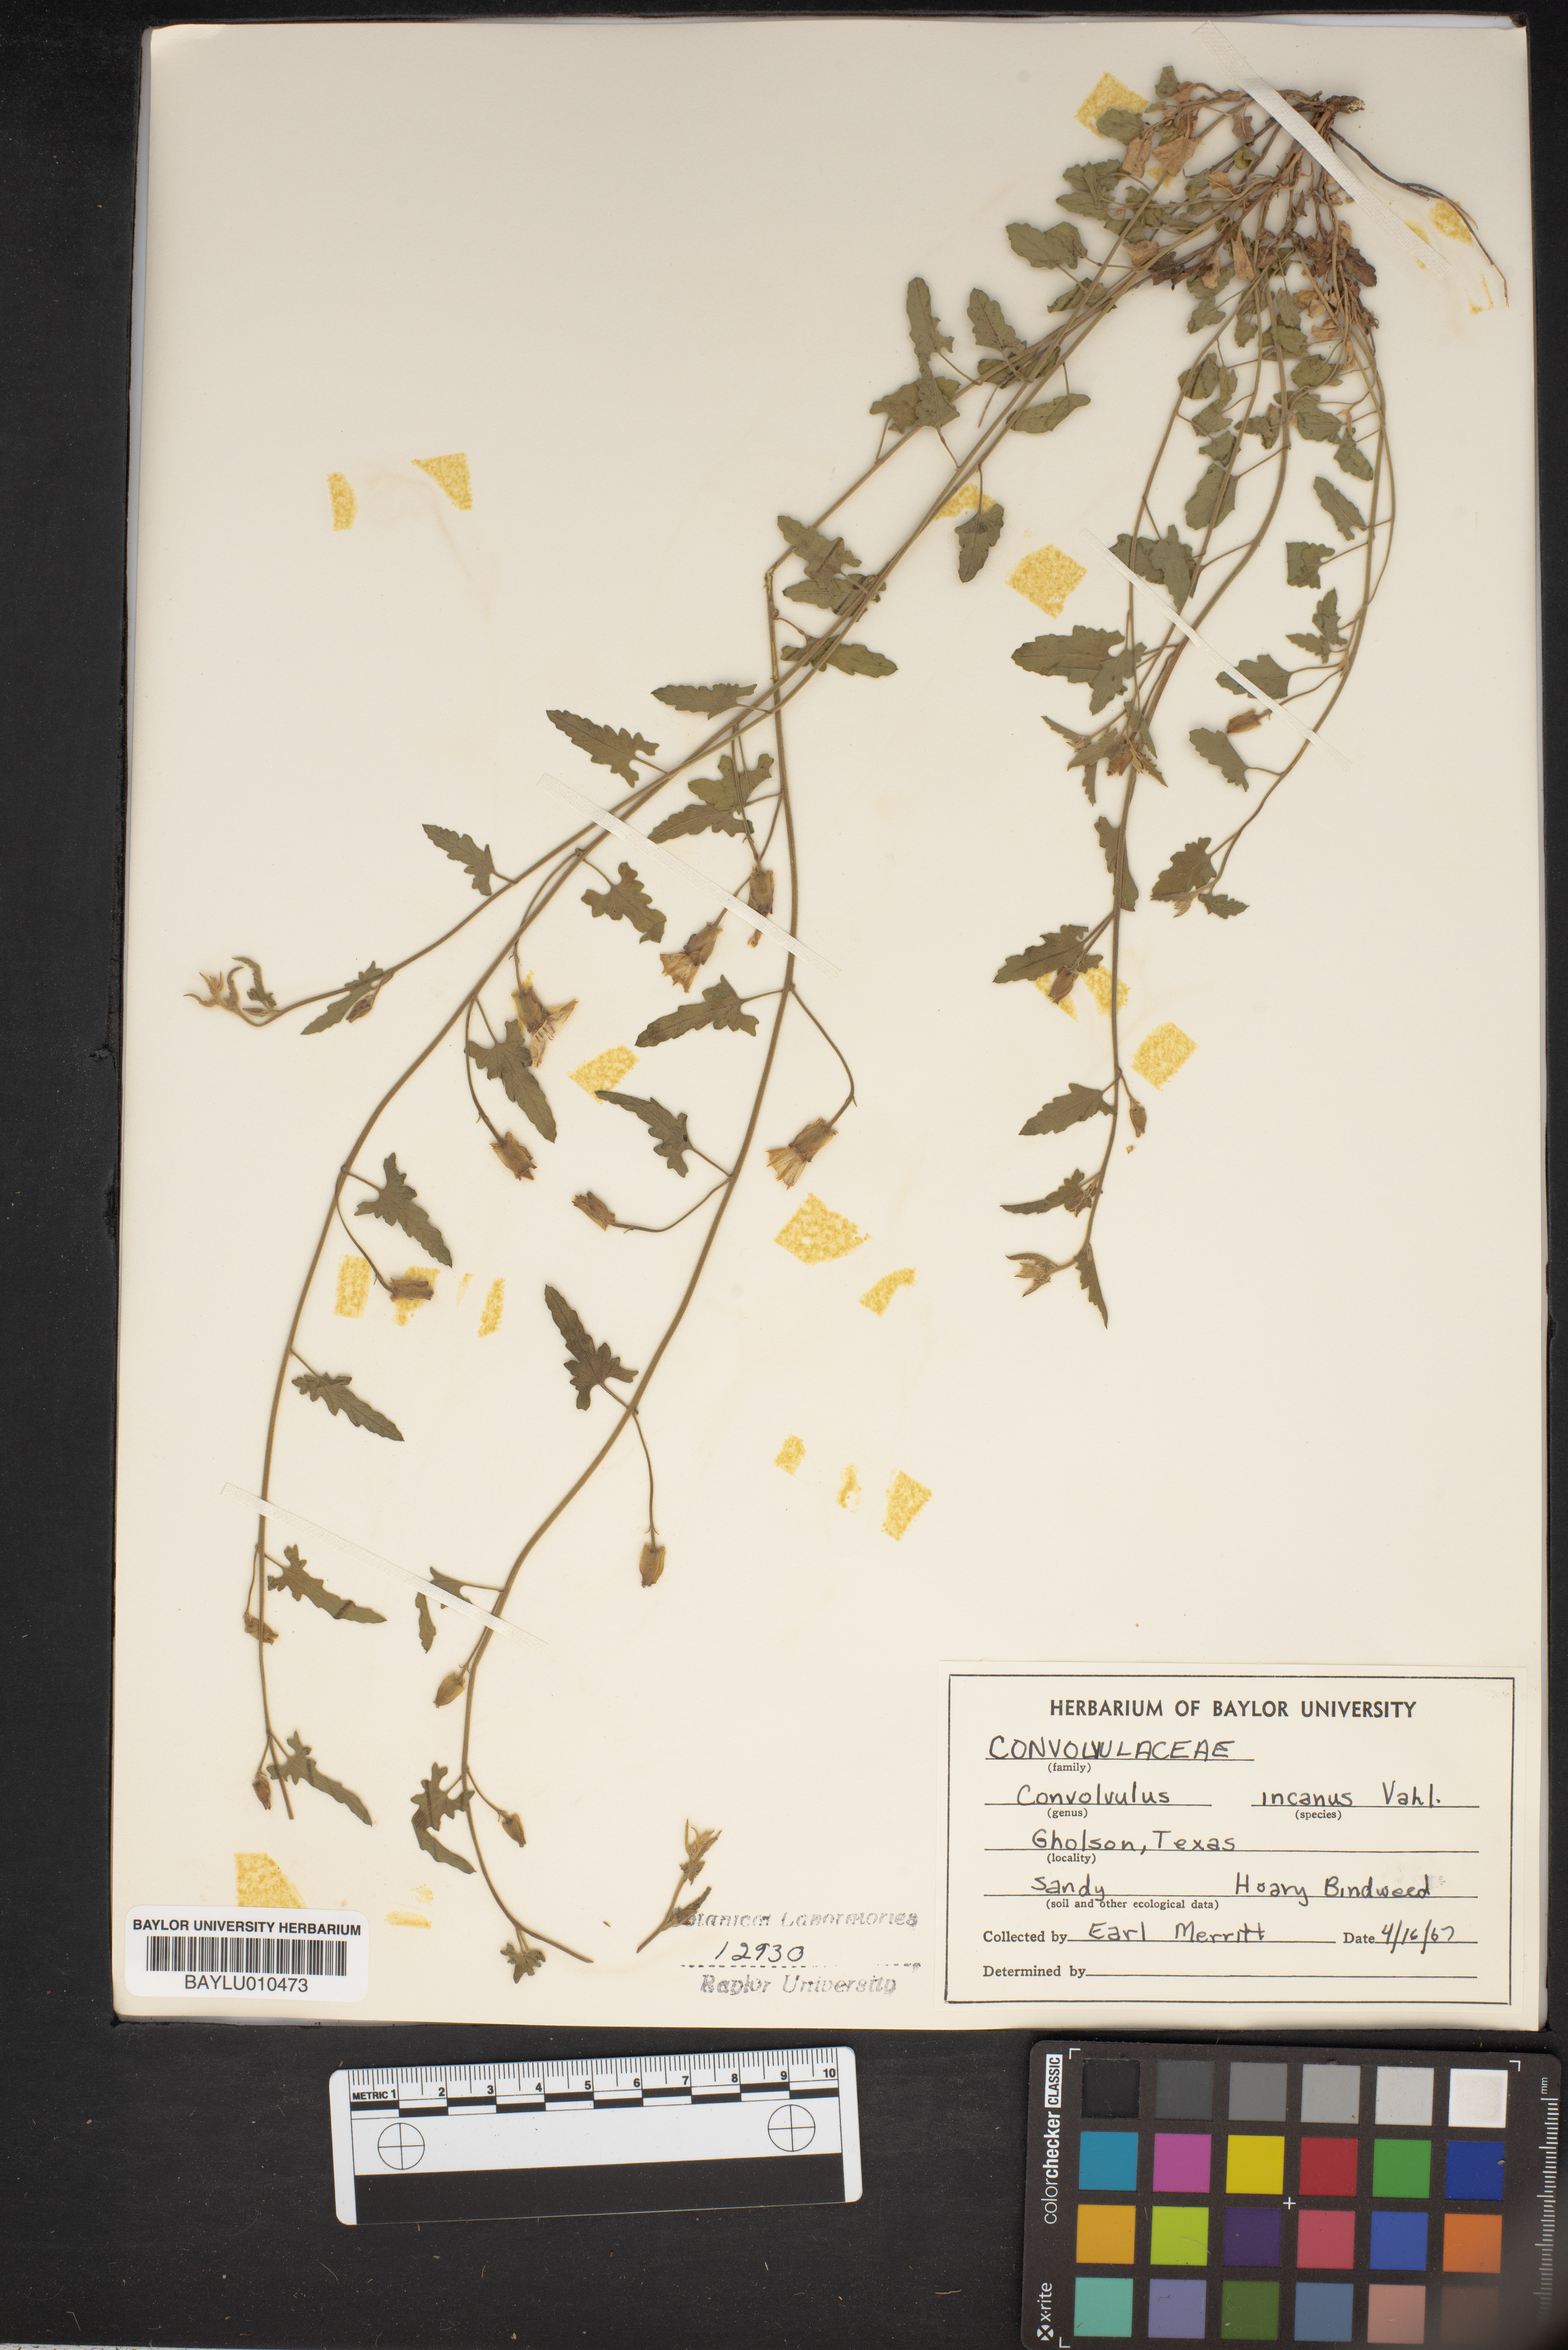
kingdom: Plantae
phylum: Tracheophyta
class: Magnoliopsida
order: Solanales
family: Convolvulaceae
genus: Convolvulus
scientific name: Convolvulus hermanniae
